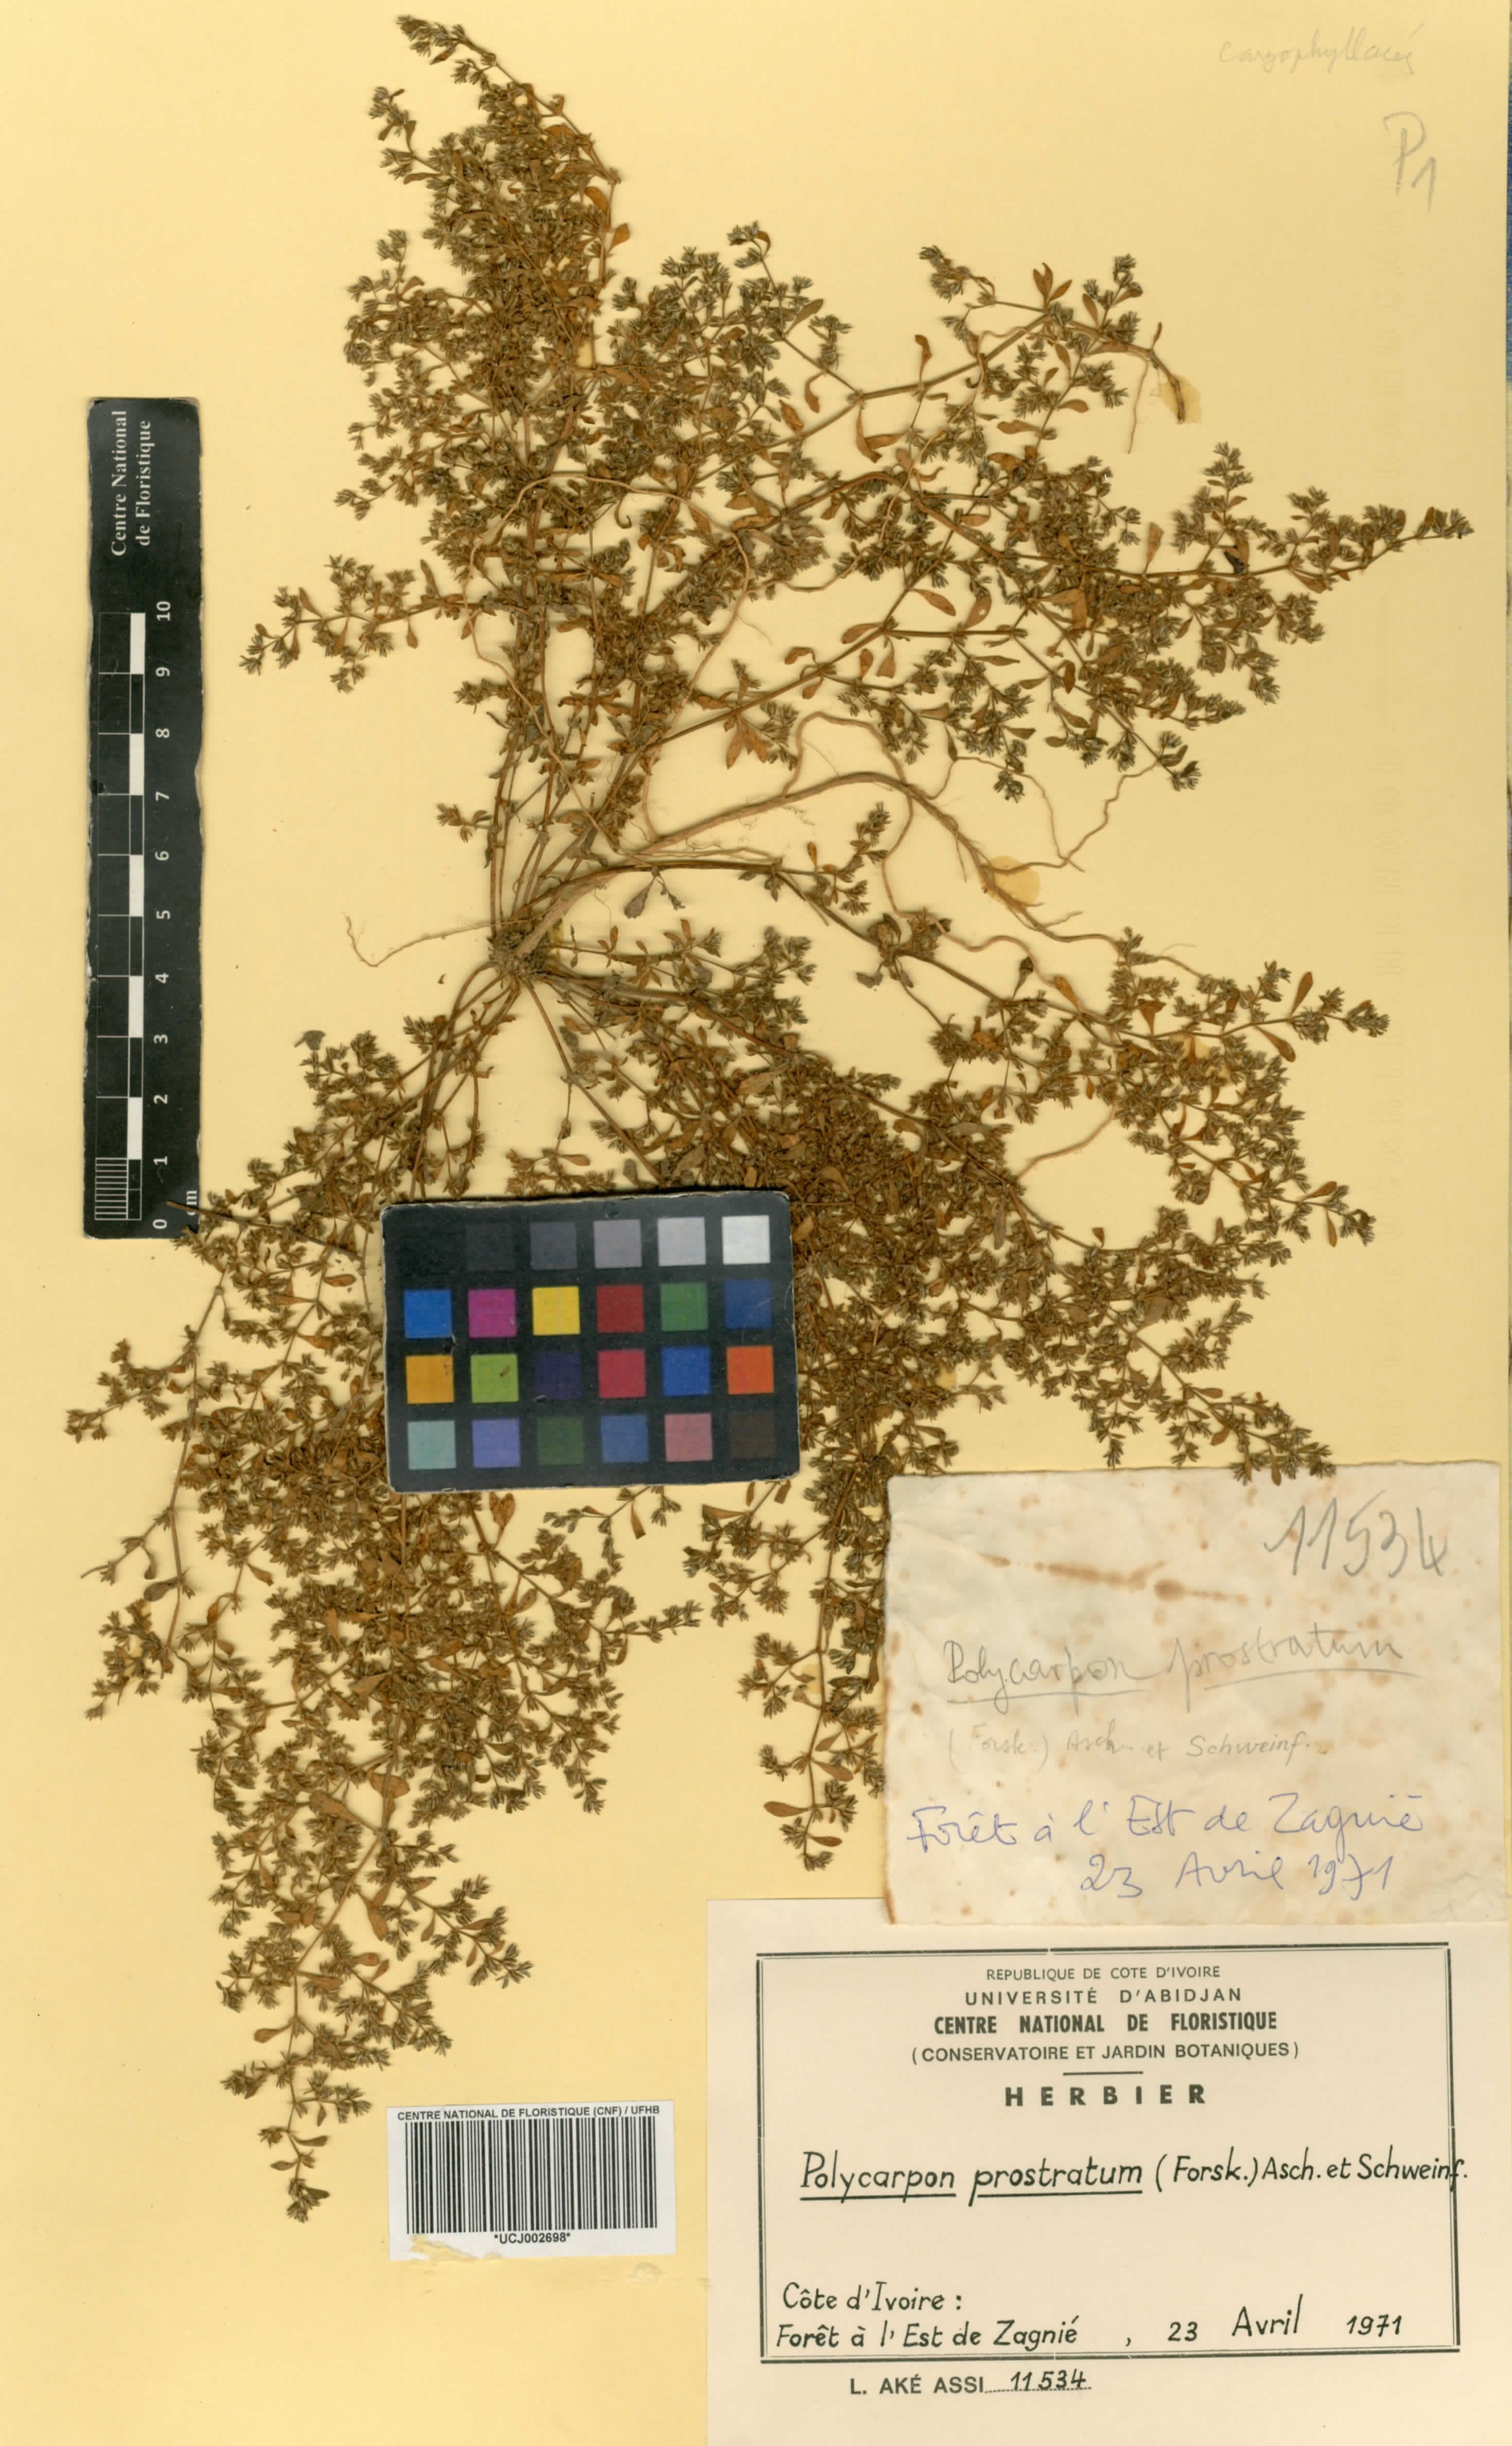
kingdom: Plantae
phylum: Tracheophyta
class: Magnoliopsida
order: Caryophyllales
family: Caryophyllaceae
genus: Polycarpon
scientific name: Polycarpon prostratum
